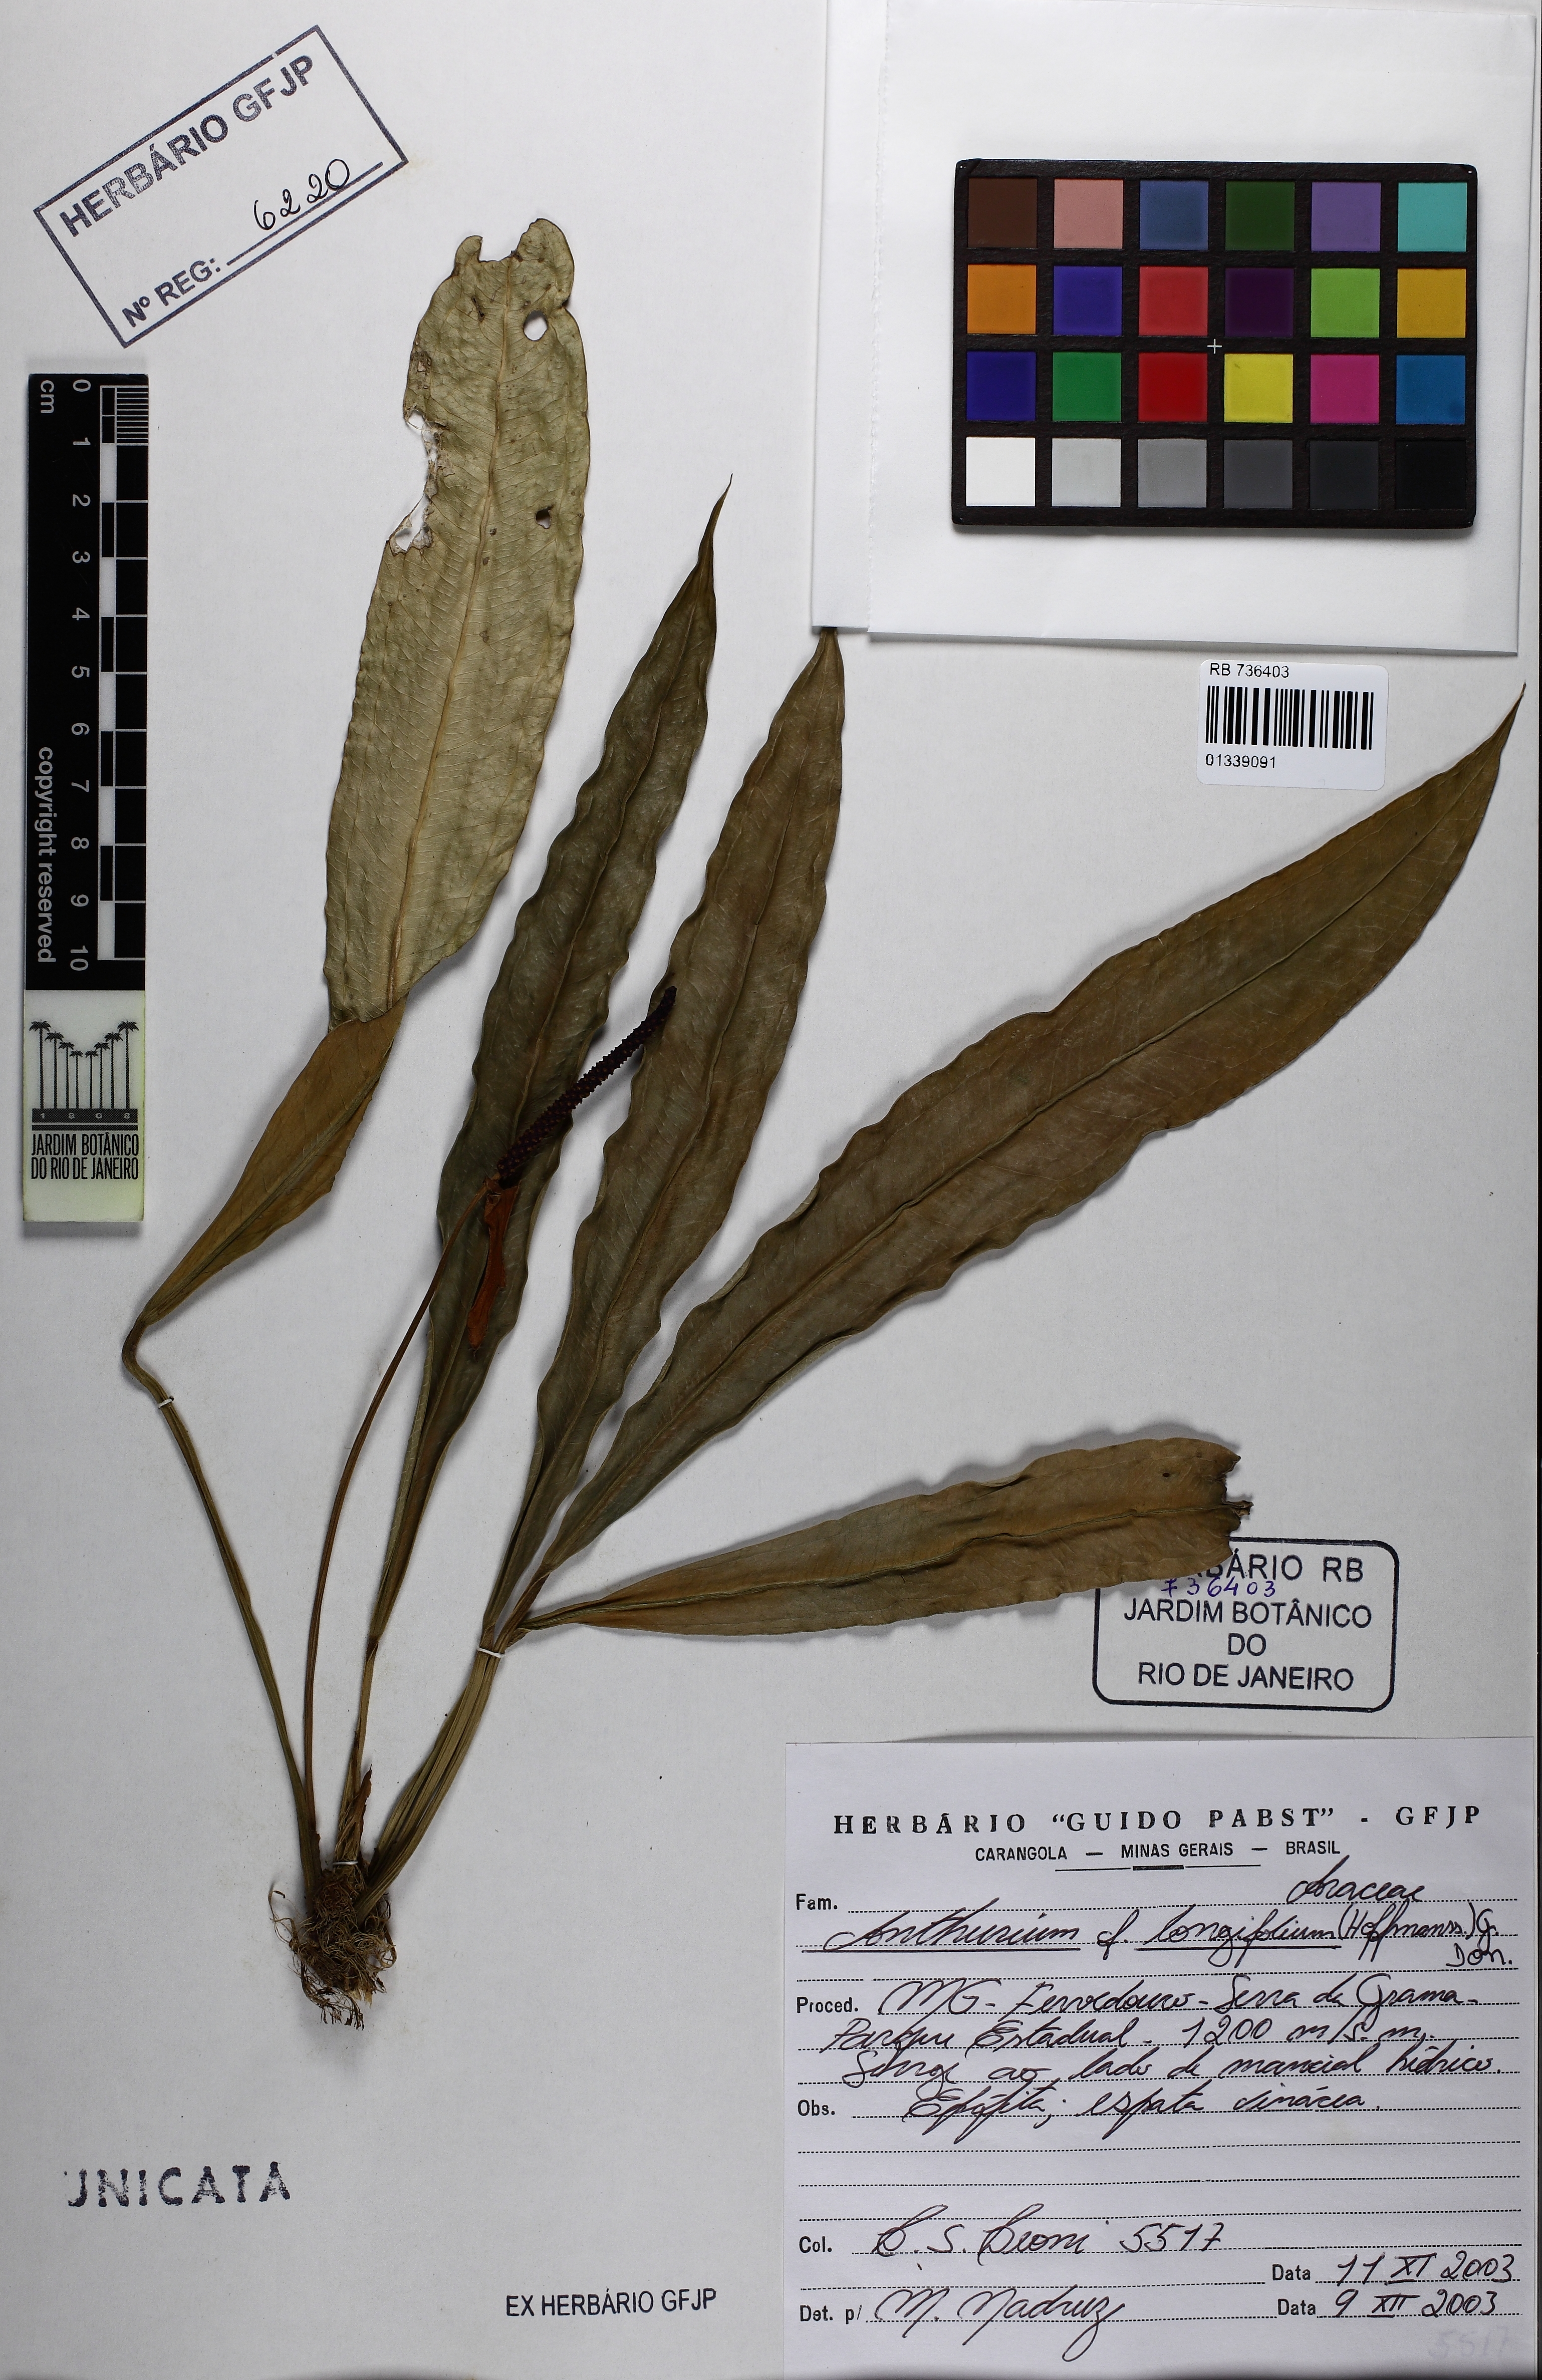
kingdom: Plantae
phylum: Tracheophyta
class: Liliopsida
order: Alismatales
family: Araceae
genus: Anthurium
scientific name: Anthurium longifolium
